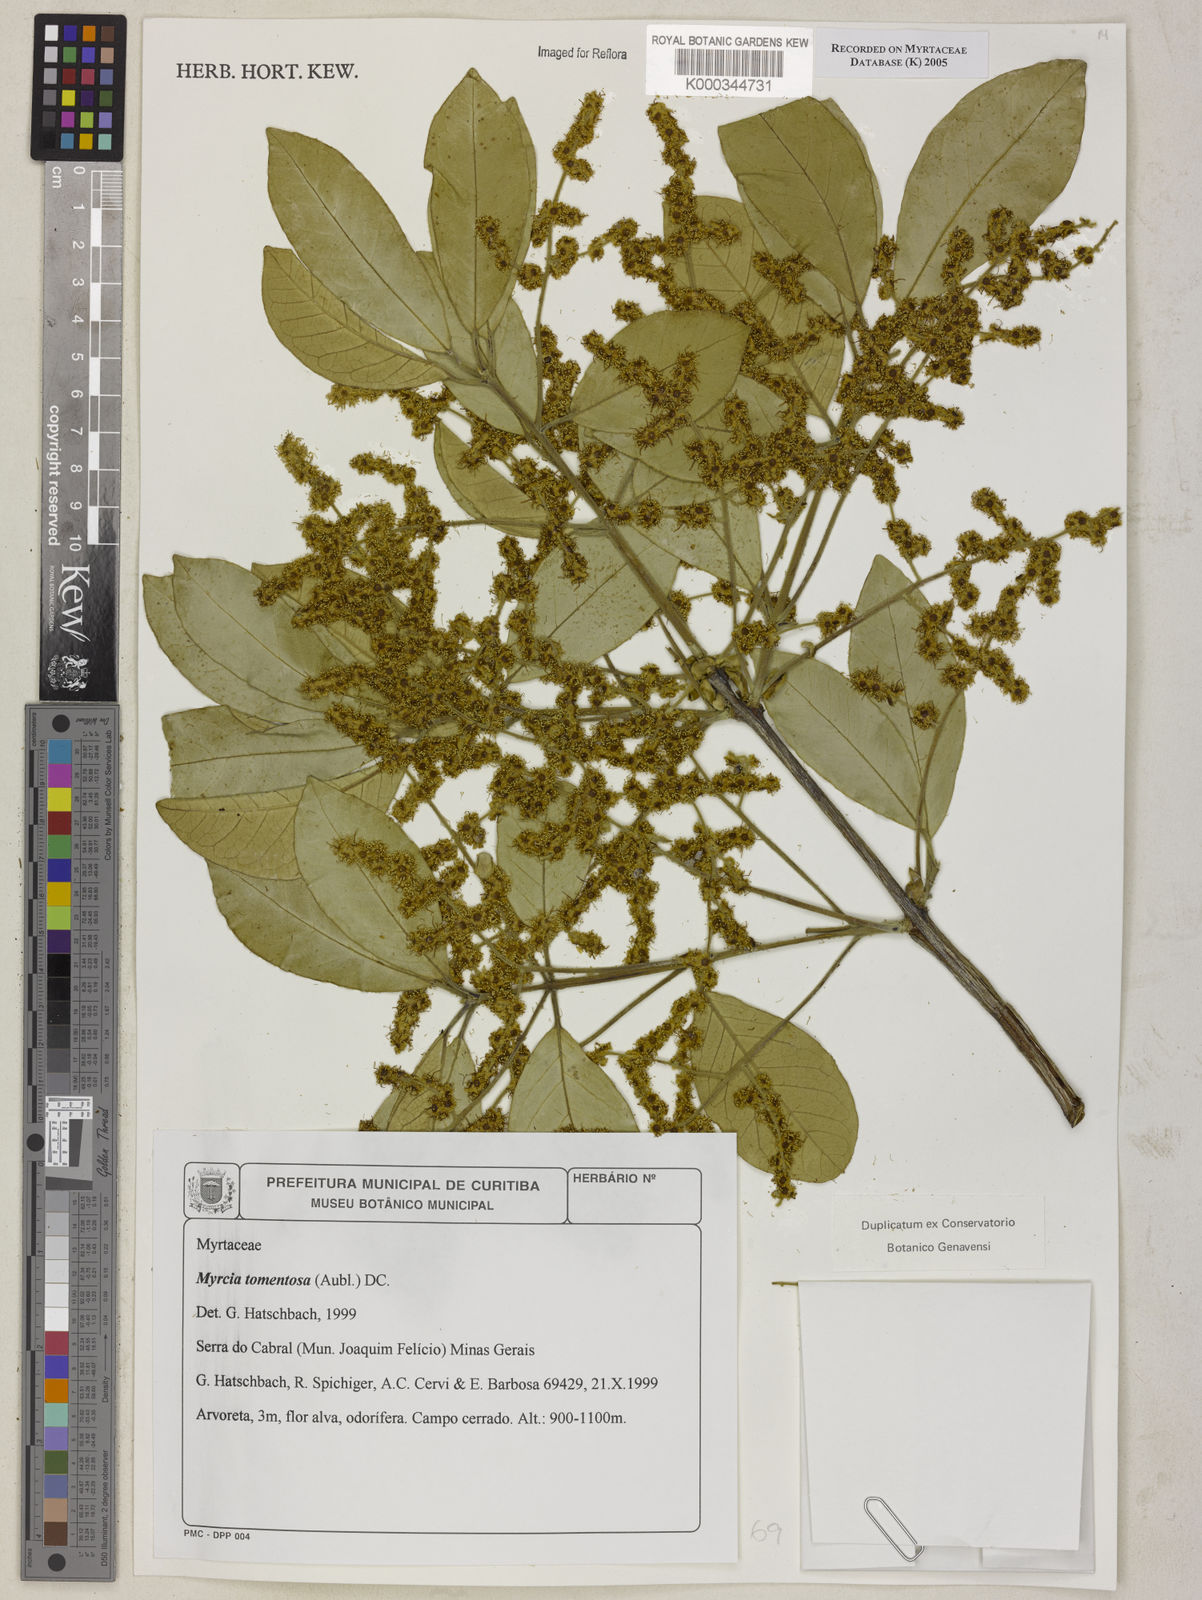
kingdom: Plantae
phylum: Tracheophyta
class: Magnoliopsida
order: Myrtales
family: Myrtaceae
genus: Myrcia
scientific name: Myrcia tomentosa
